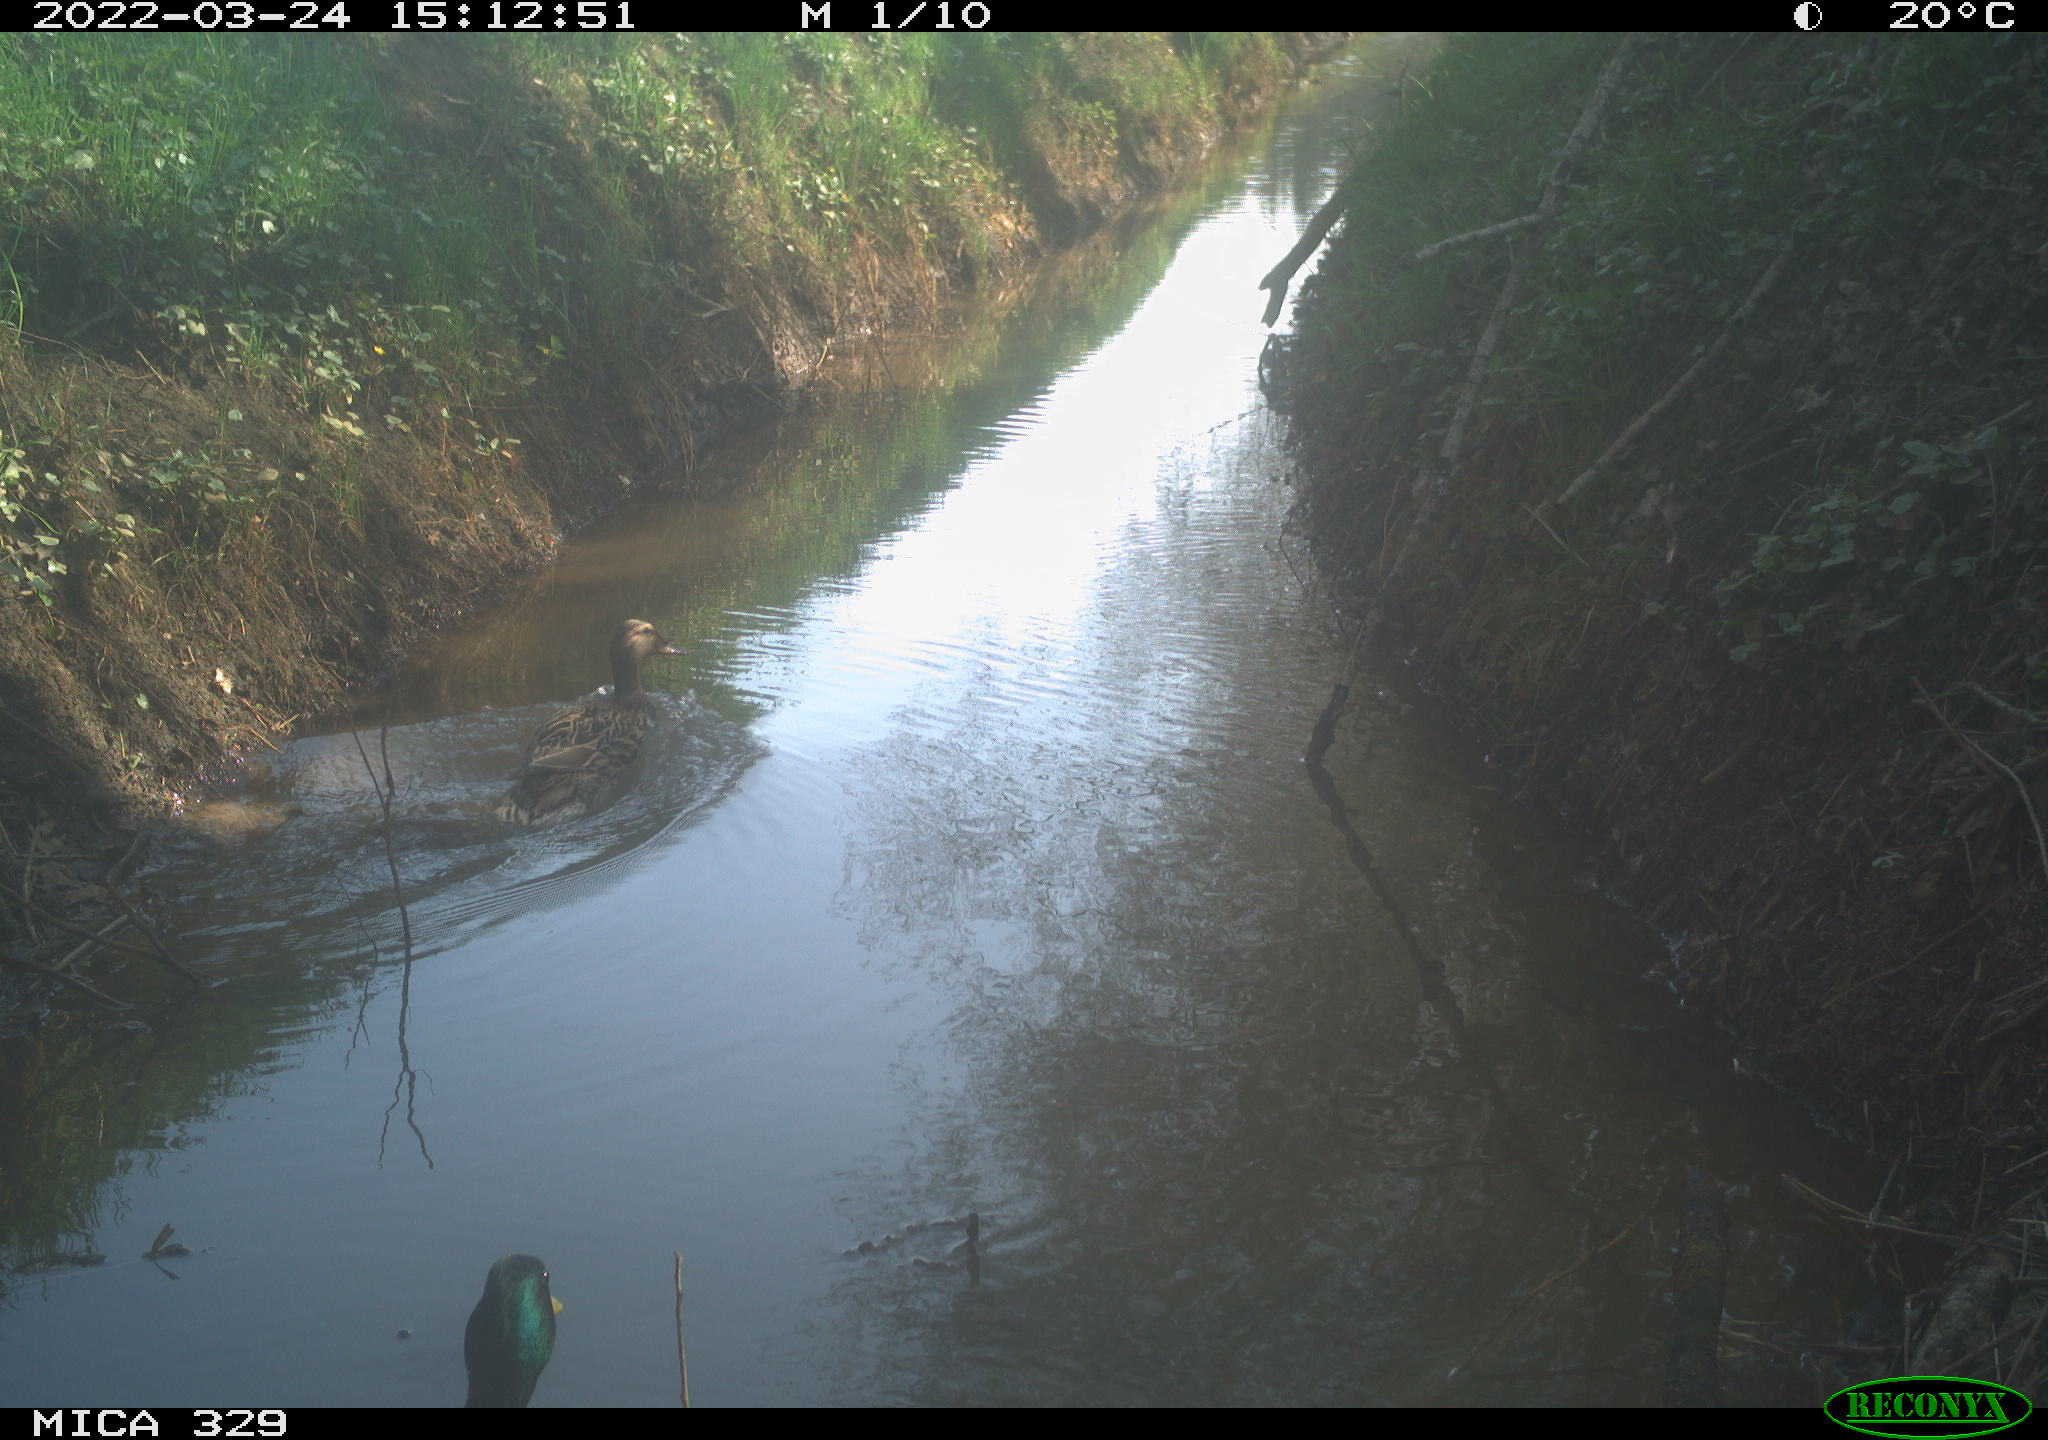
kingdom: Animalia
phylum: Chordata
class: Aves
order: Anseriformes
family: Anatidae
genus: Anas
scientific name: Anas platyrhynchos
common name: Mallard
